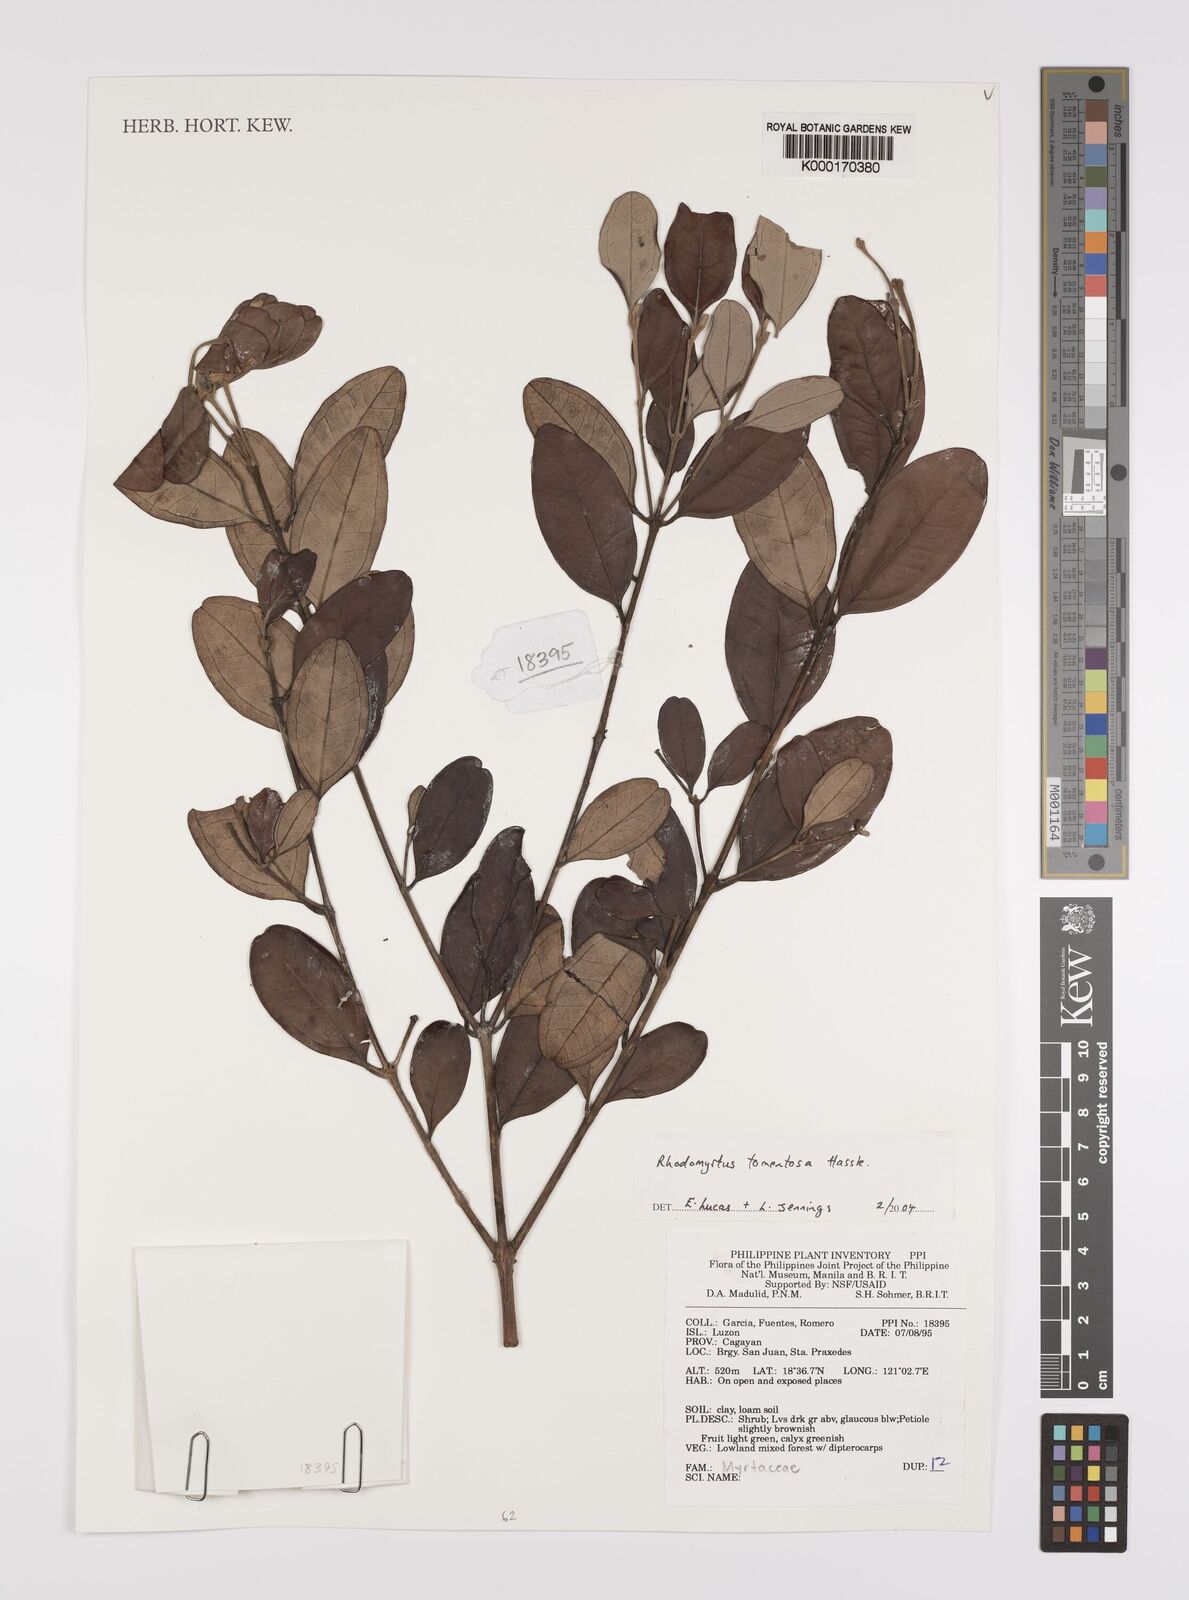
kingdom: Plantae
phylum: Tracheophyta
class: Magnoliopsida
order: Myrtales
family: Myrtaceae
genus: Rhodomyrtus
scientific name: Rhodomyrtus tomentosa
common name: Rose myrtle
